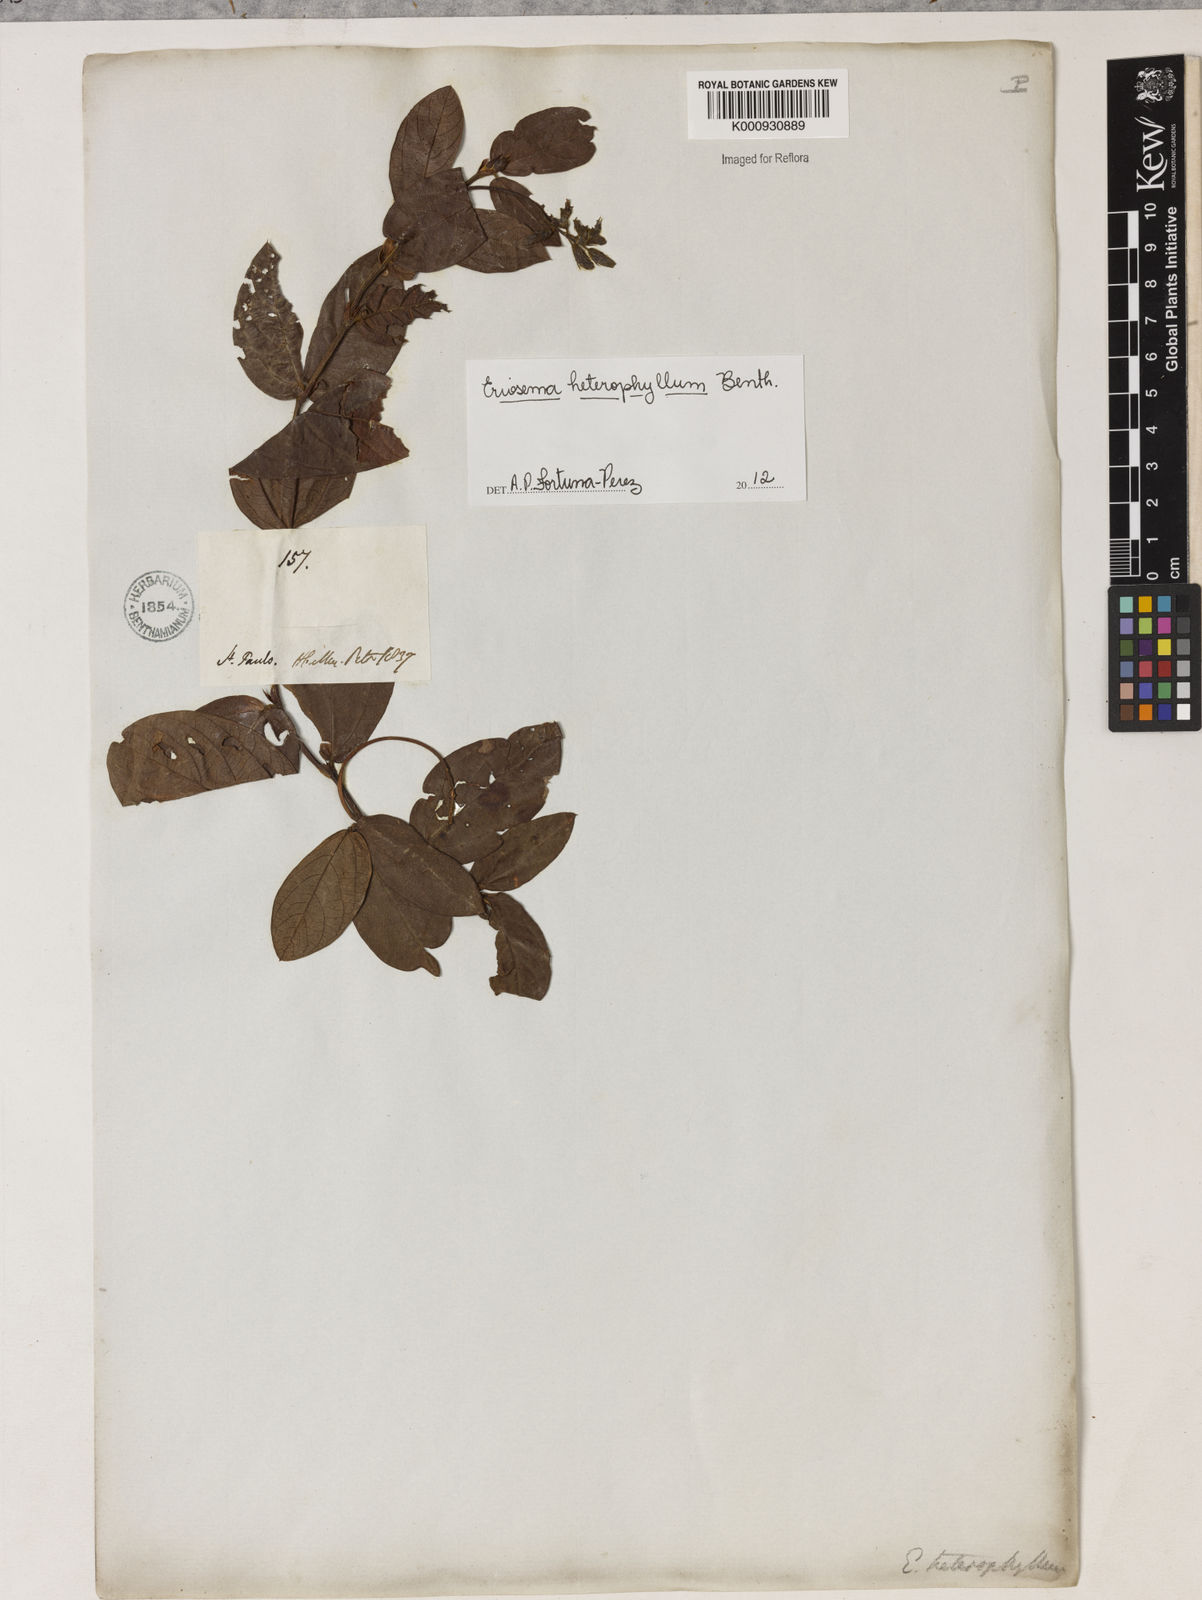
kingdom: Plantae
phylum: Tracheophyta
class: Magnoliopsida
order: Fabales
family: Fabaceae
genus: Eriosema
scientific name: Eriosema heterophyllum
